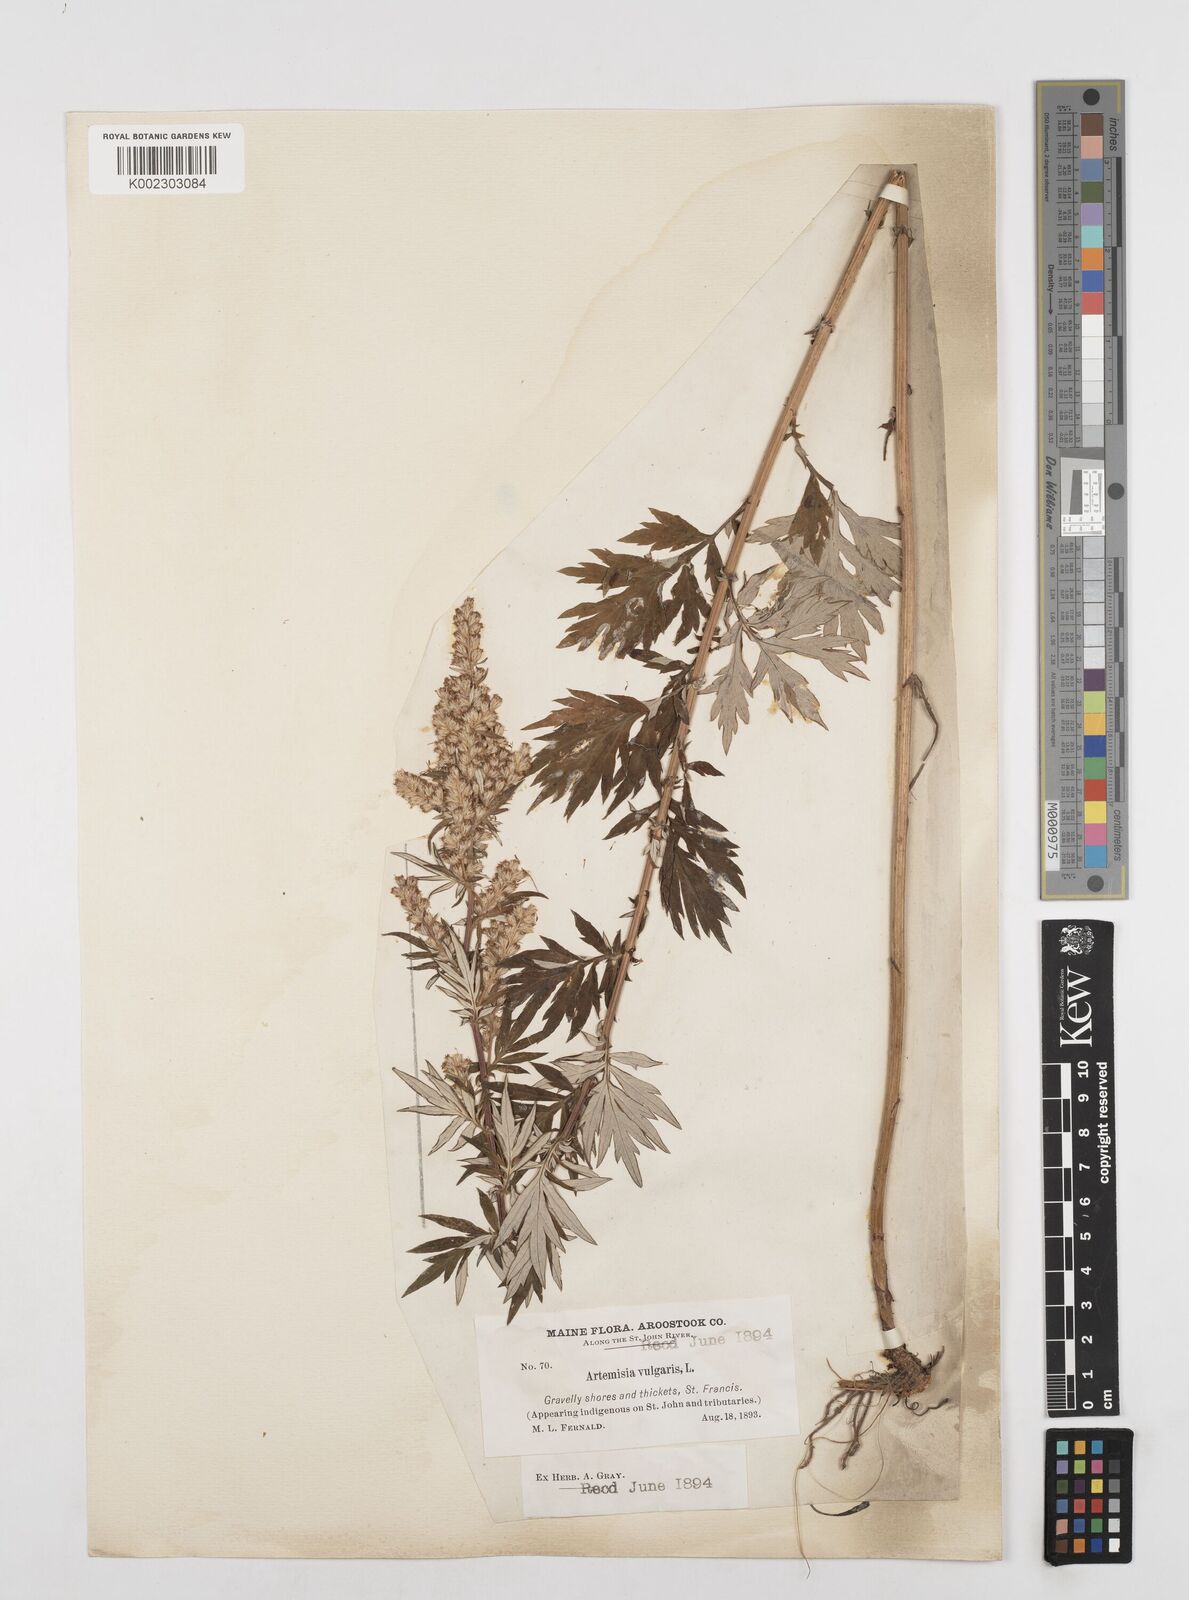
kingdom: Plantae
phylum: Tracheophyta
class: Magnoliopsida
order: Asterales
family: Asteraceae
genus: Artemisia
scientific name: Artemisia vulgaris
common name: Mugwort
